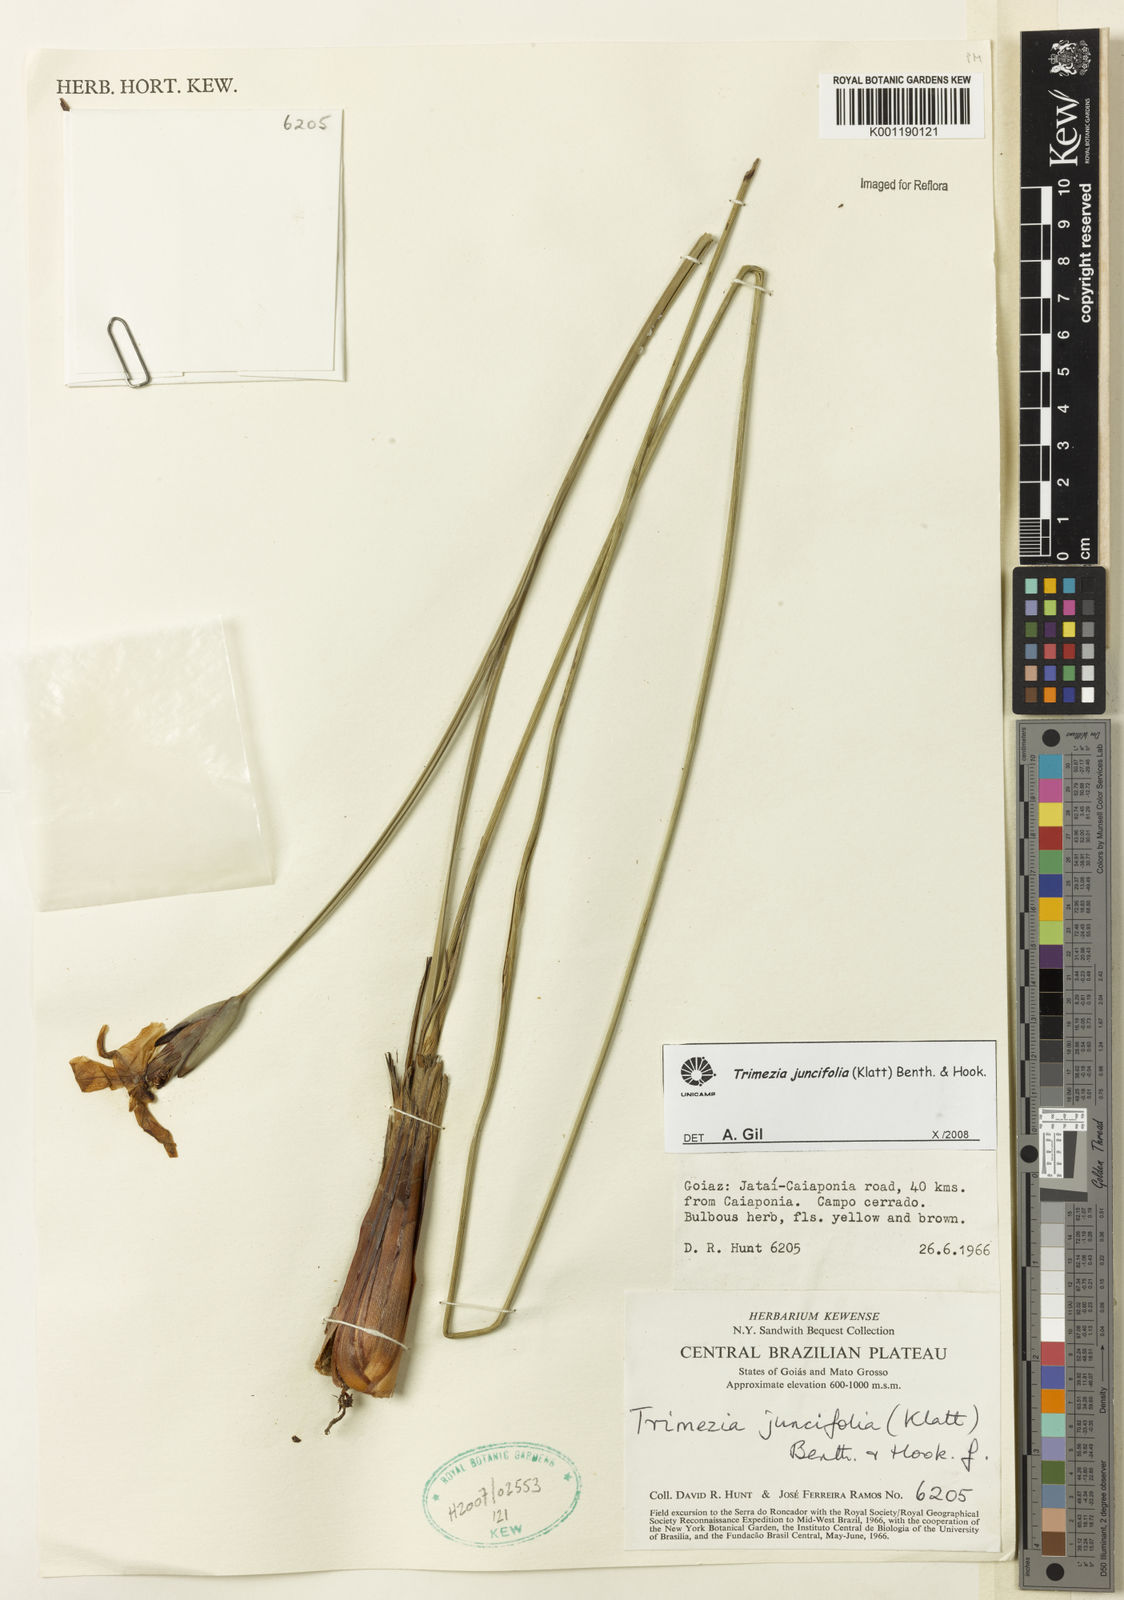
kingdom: Plantae
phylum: Tracheophyta
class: Liliopsida
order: Asparagales
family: Iridaceae
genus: Trimezia
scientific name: Trimezia juncifolia
